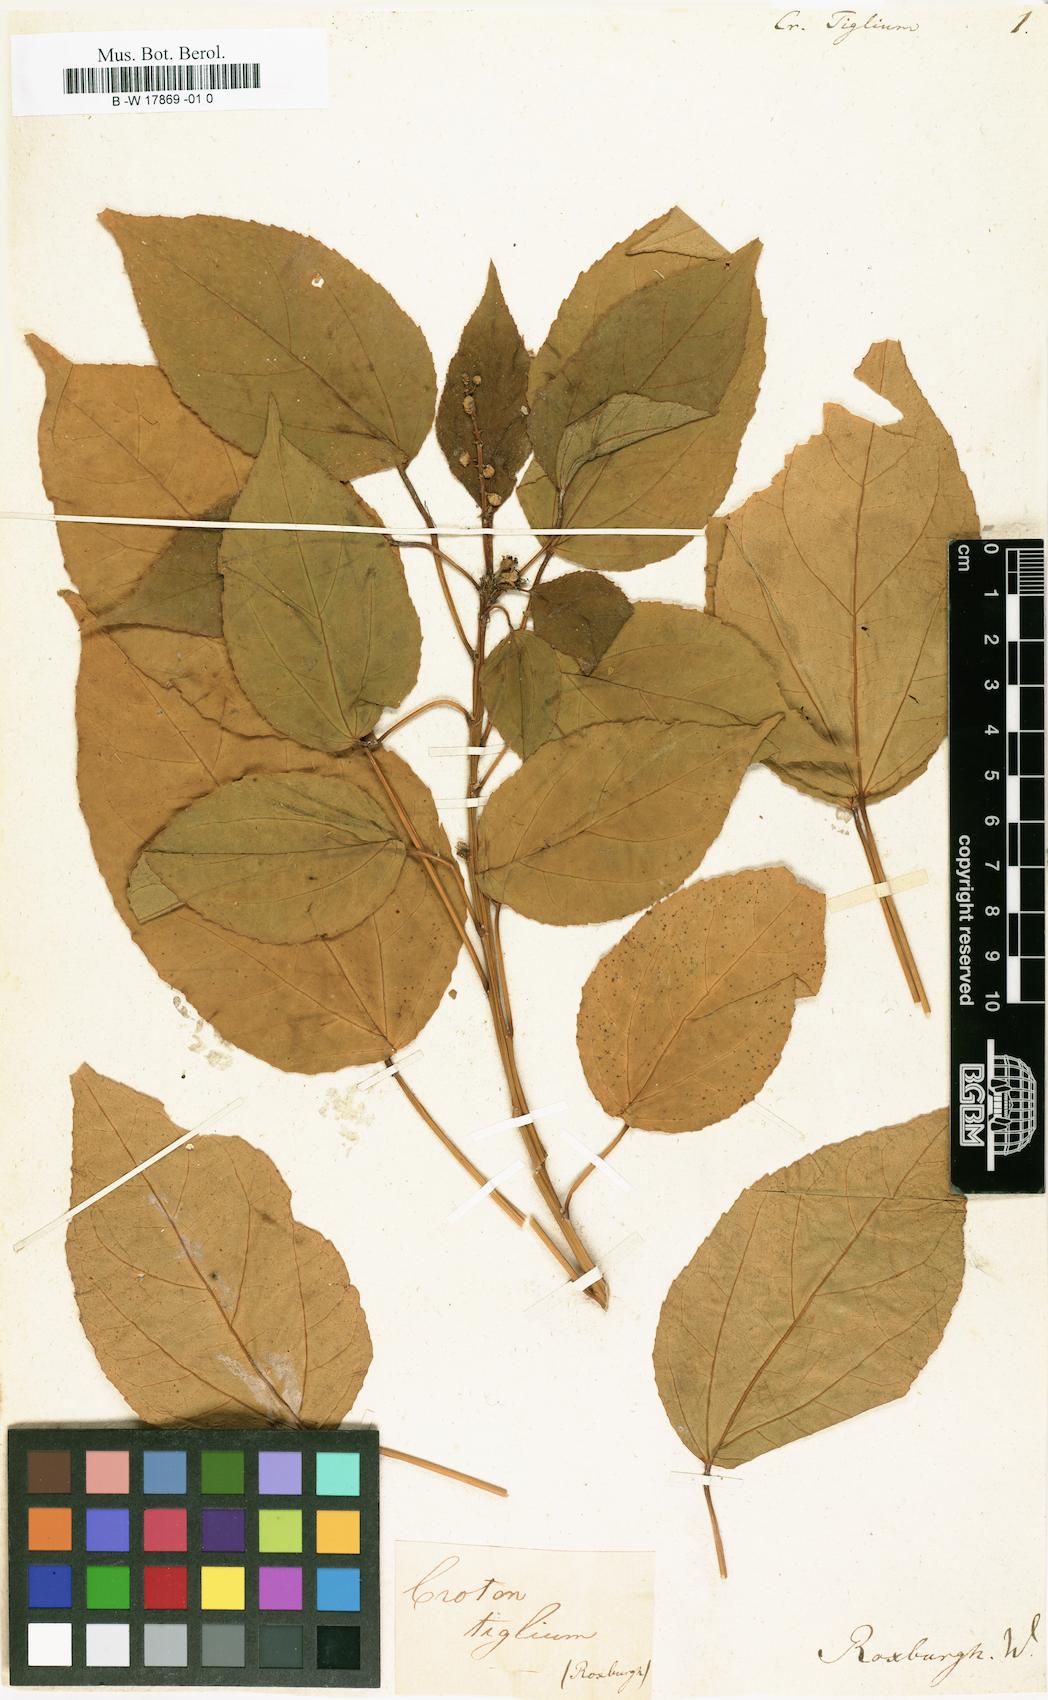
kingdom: Plantae
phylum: Tracheophyta
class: Magnoliopsida
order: Malpighiales
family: Euphorbiaceae
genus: Croton
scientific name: Croton tiglium
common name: Purging croton
